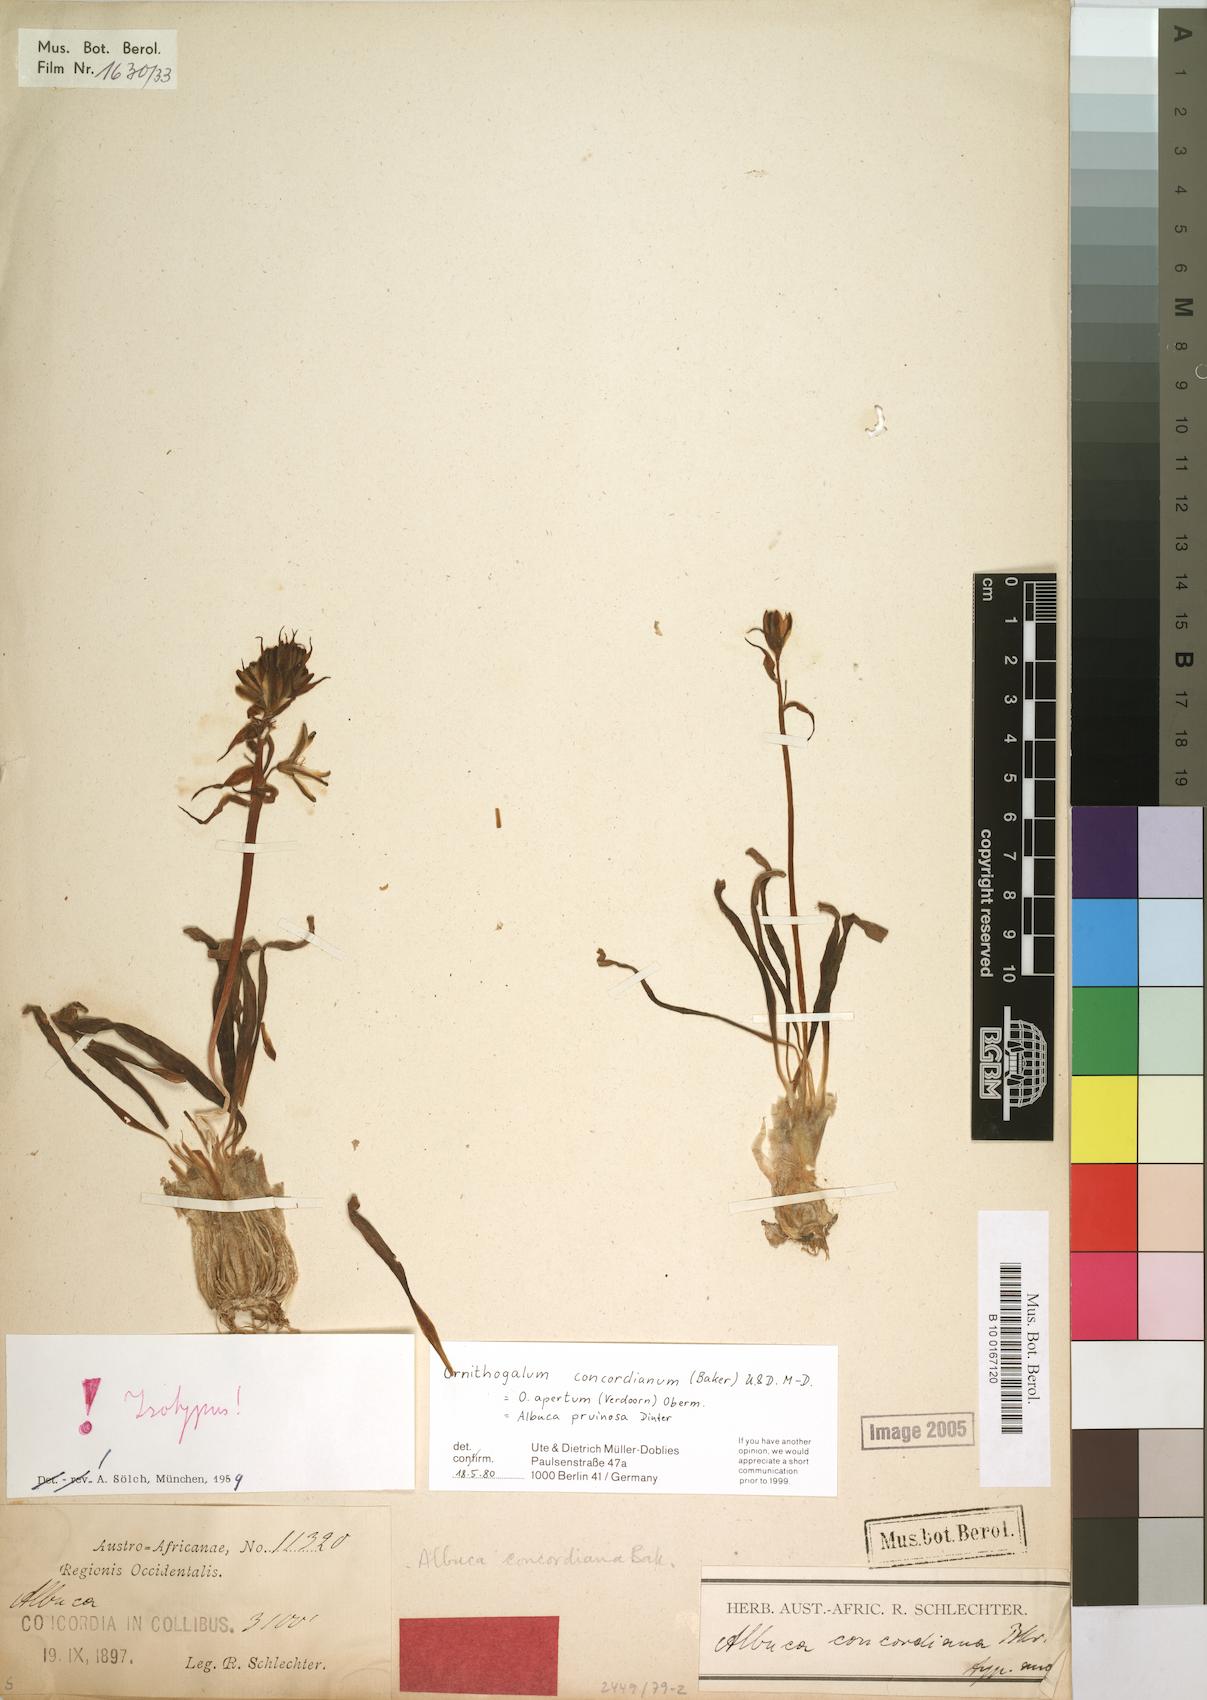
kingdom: Plantae
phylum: Tracheophyta
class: Liliopsida
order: Asparagales
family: Asparagaceae
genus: Albuca
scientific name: Albuca concordiana
